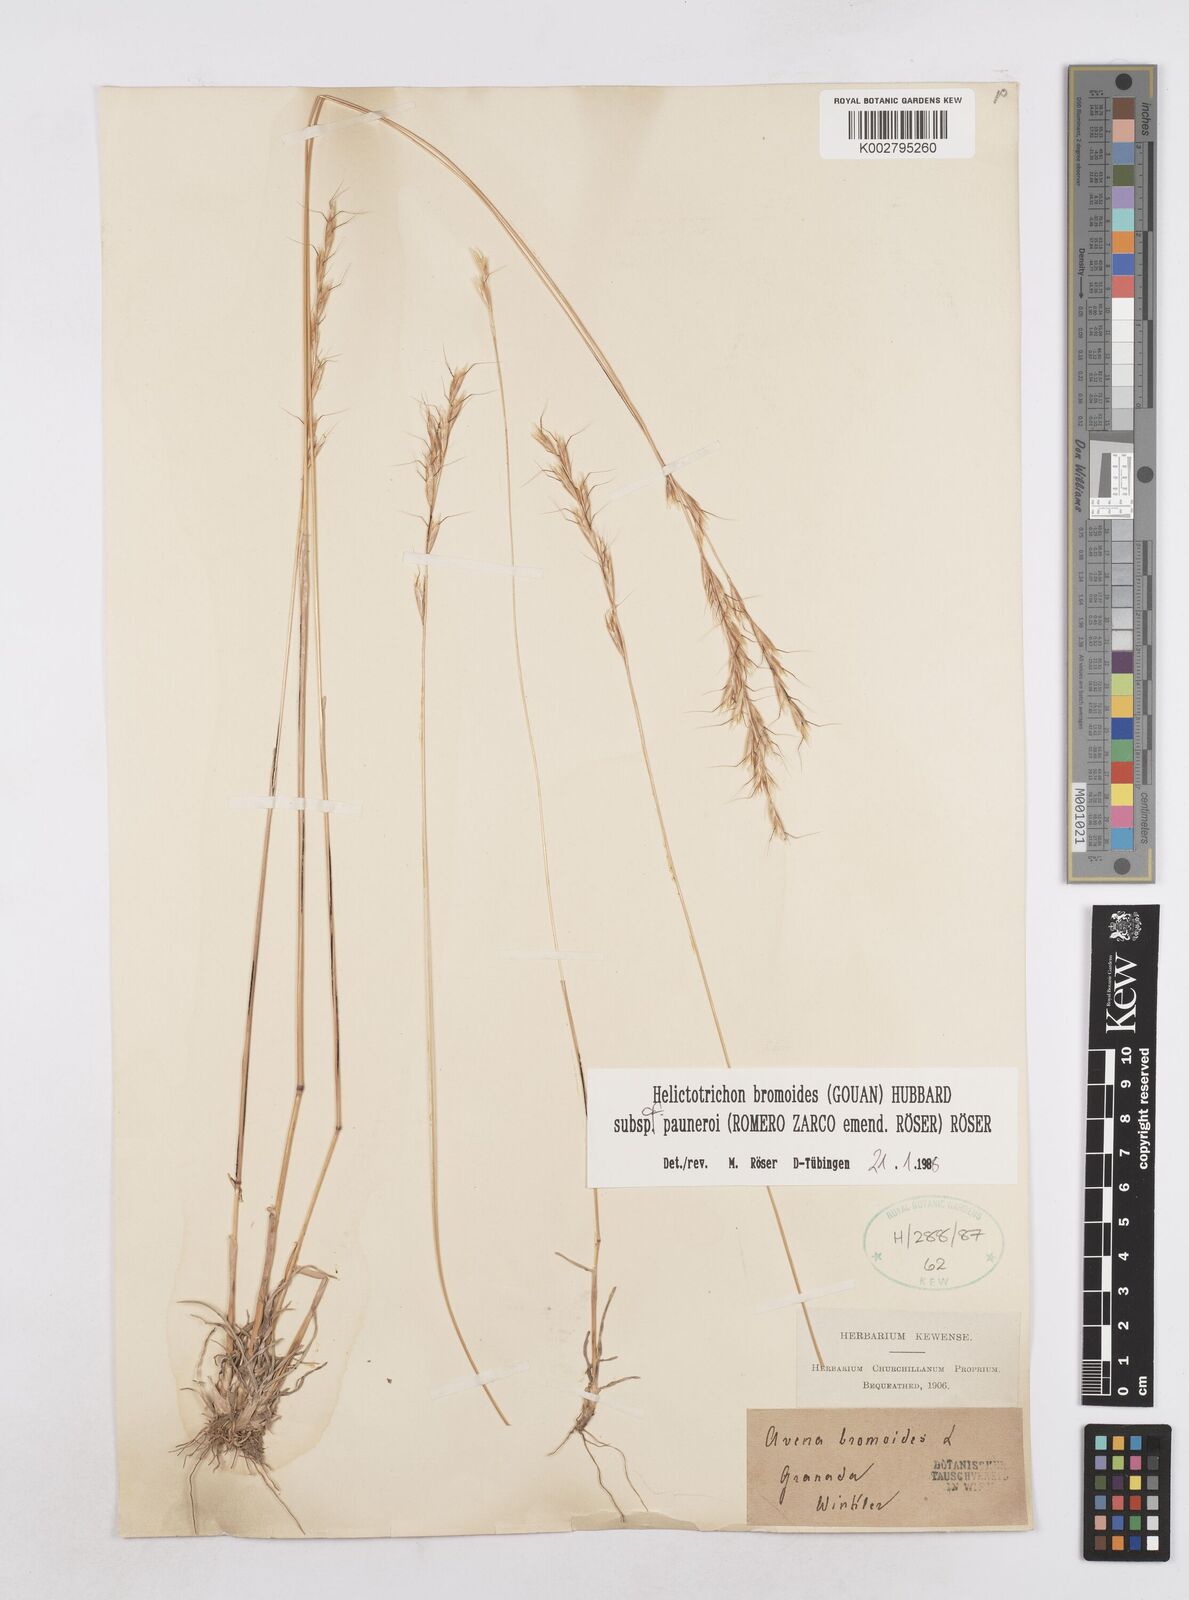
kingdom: Plantae
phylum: Tracheophyta
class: Liliopsida
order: Poales
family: Poaceae
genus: Helictochloa
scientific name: Helictochloa bromoides
